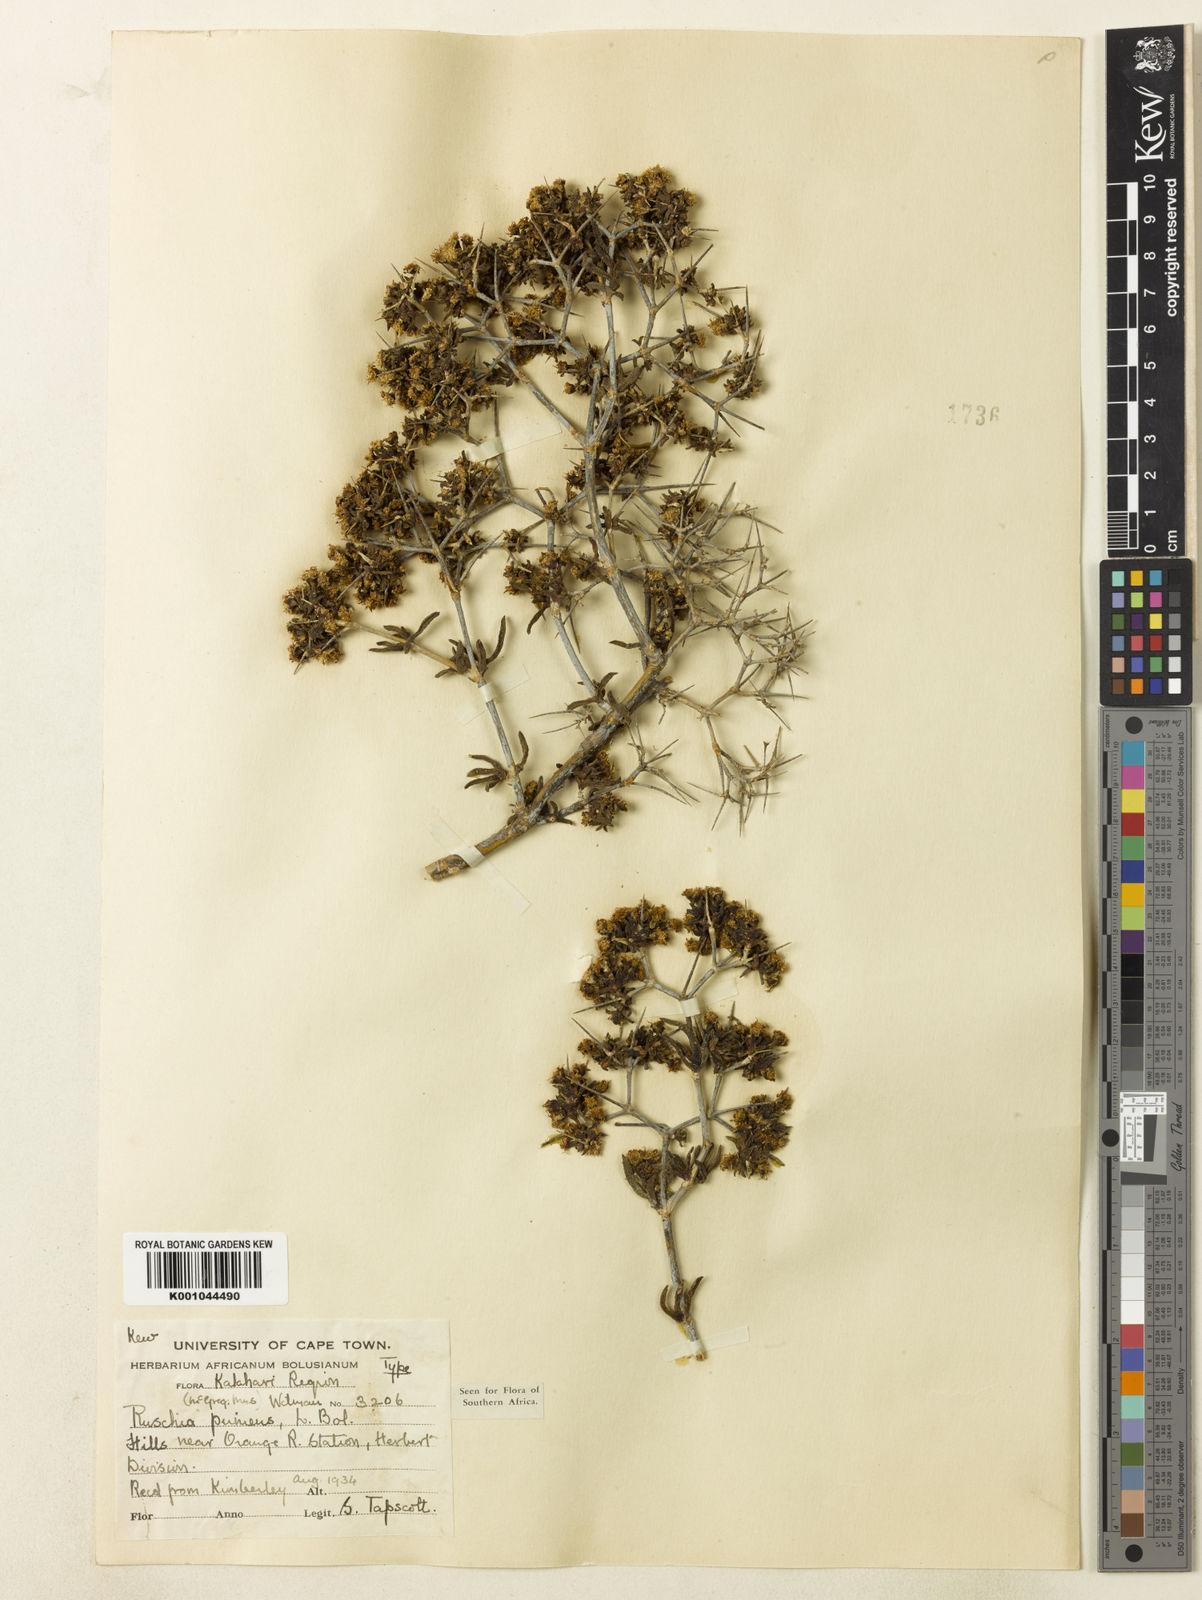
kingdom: Plantae
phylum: Tracheophyta
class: Magnoliopsida
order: Caryophyllales
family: Aizoaceae
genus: Ruschia
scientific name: Ruschia
